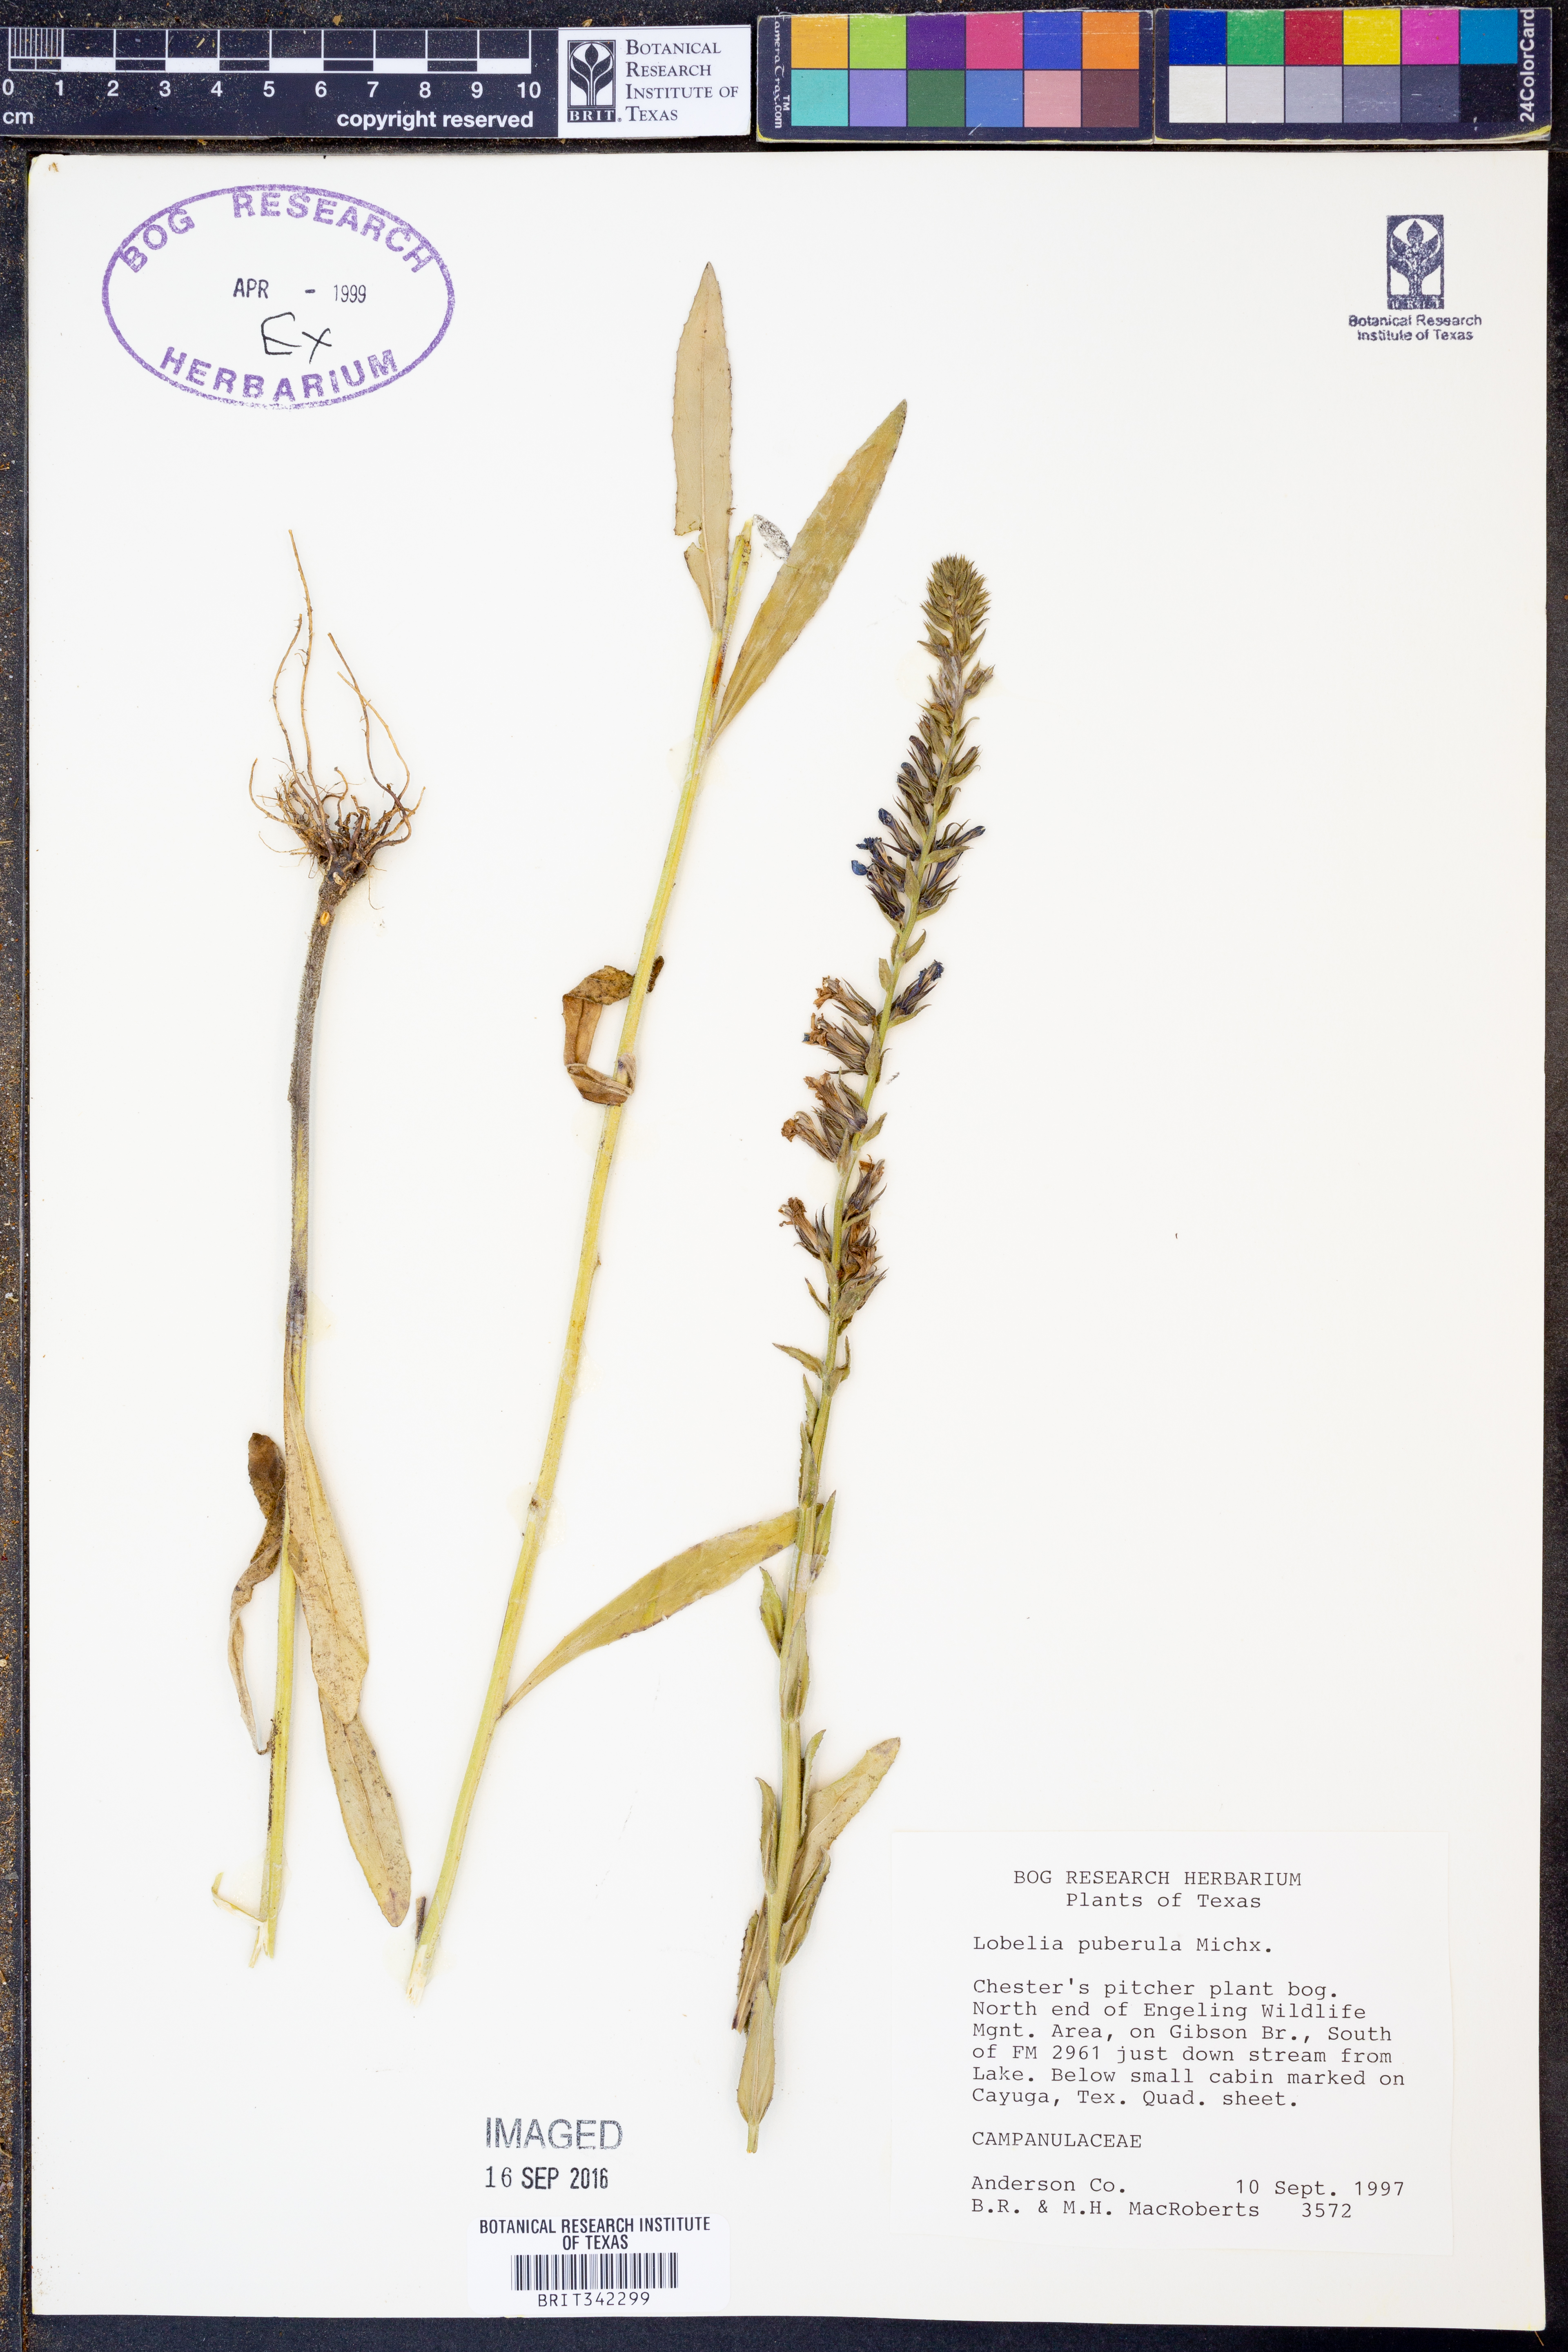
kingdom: Plantae
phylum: Tracheophyta
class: Magnoliopsida
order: Asterales
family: Campanulaceae
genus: Lobelia
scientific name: Lobelia puberula
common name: Purple dewdrop
